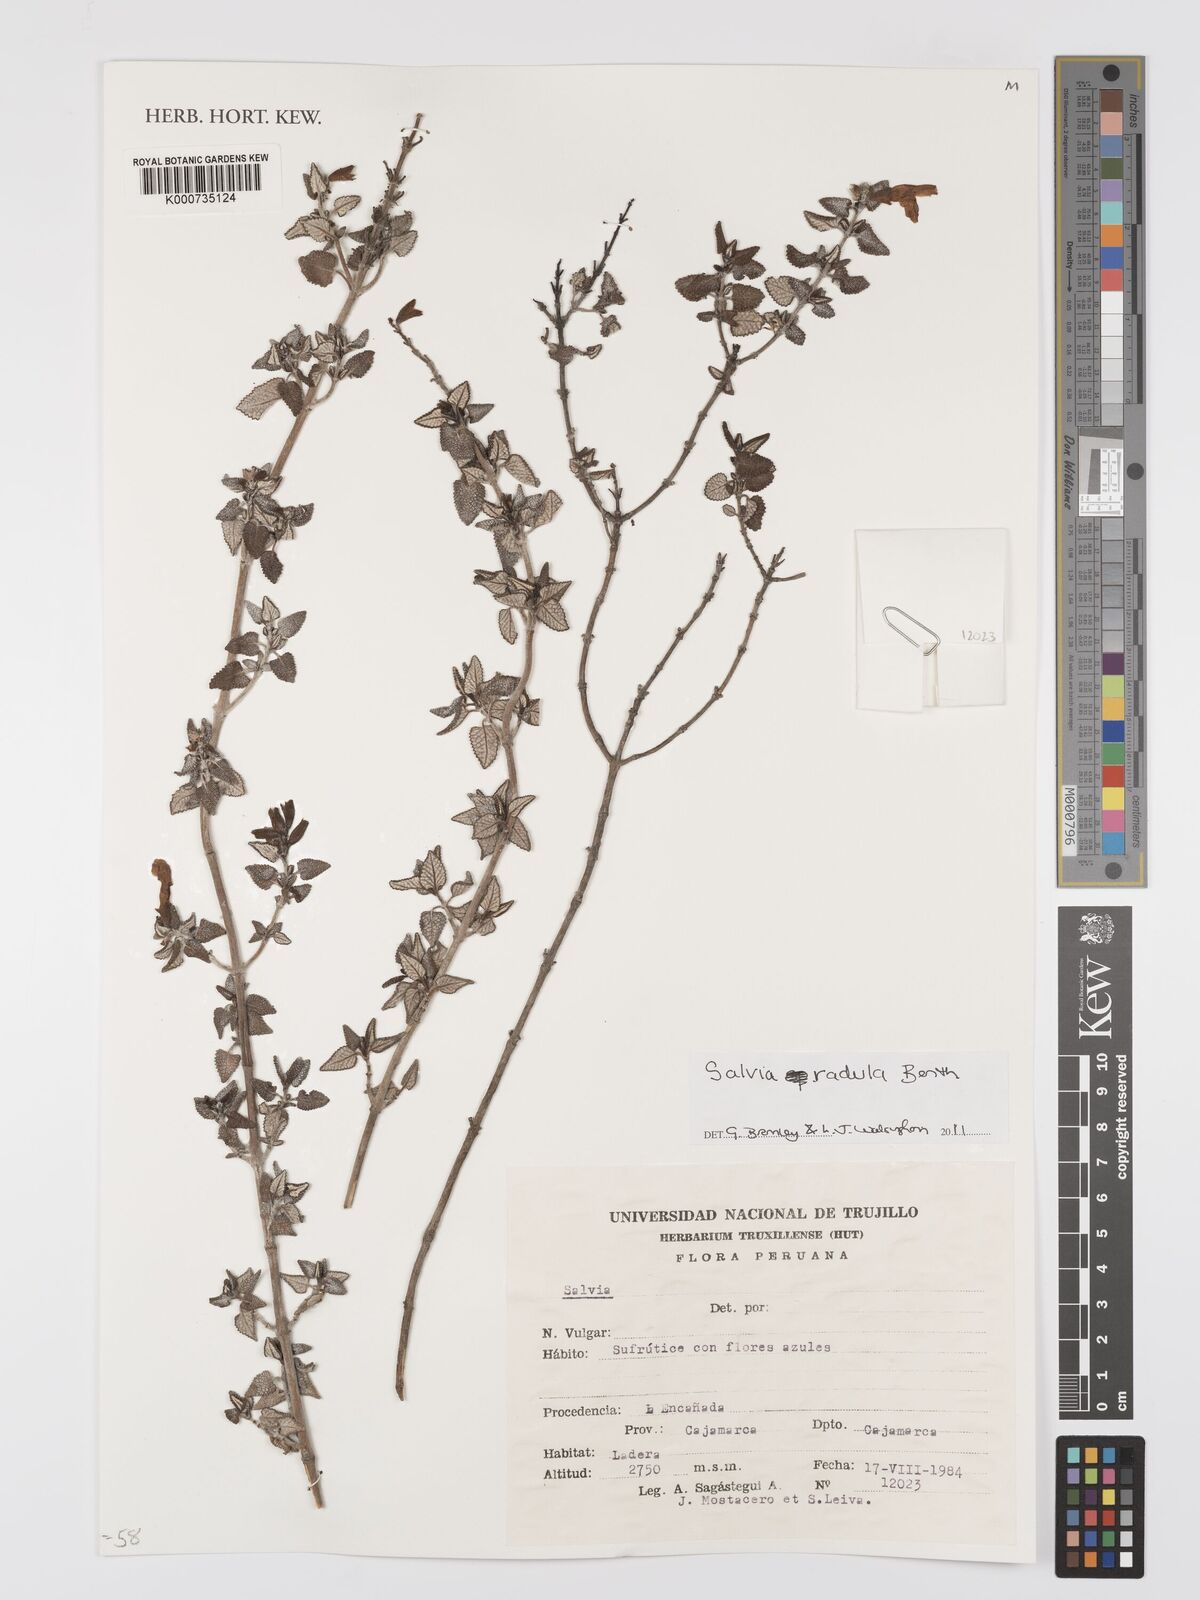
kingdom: Plantae
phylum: Tracheophyta
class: Magnoliopsida
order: Lamiales
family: Lamiaceae
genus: Salvia
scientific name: Salvia radula
